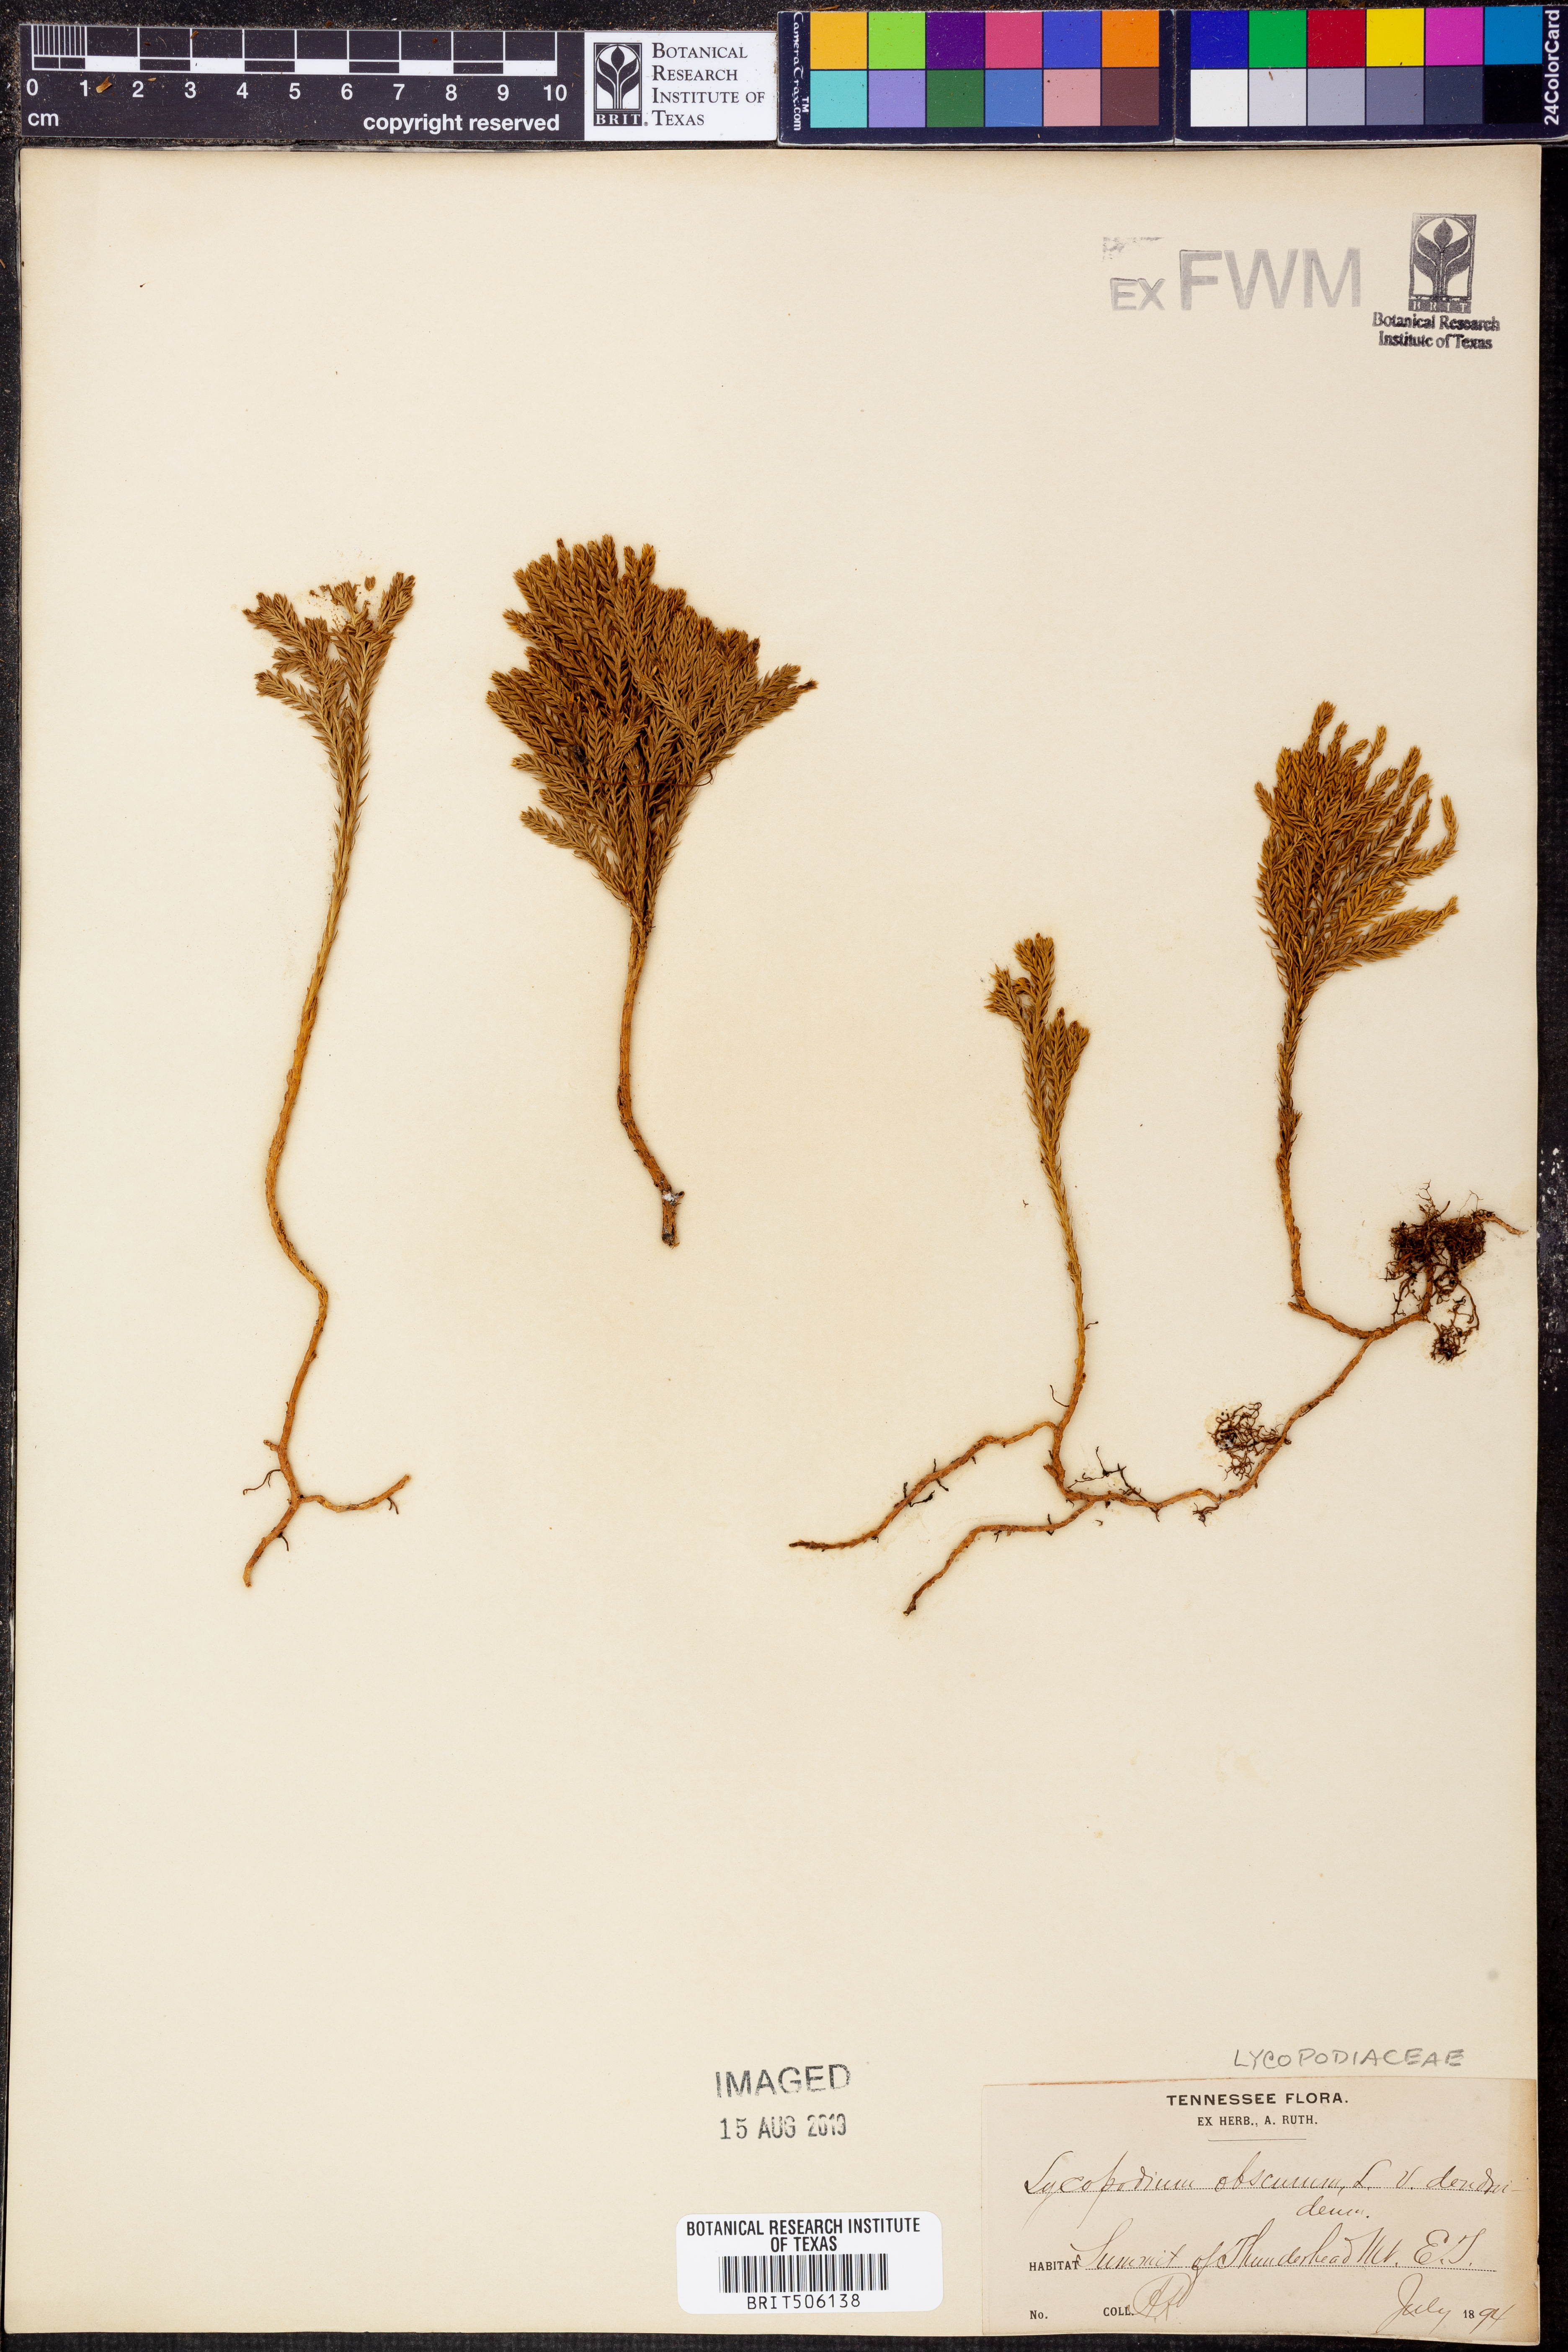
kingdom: Plantae
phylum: Tracheophyta
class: Lycopodiopsida
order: Lycopodiales
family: Lycopodiaceae
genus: Dendrolycopodium
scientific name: Dendrolycopodium dendroideum
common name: Northern tree-clubmoss
